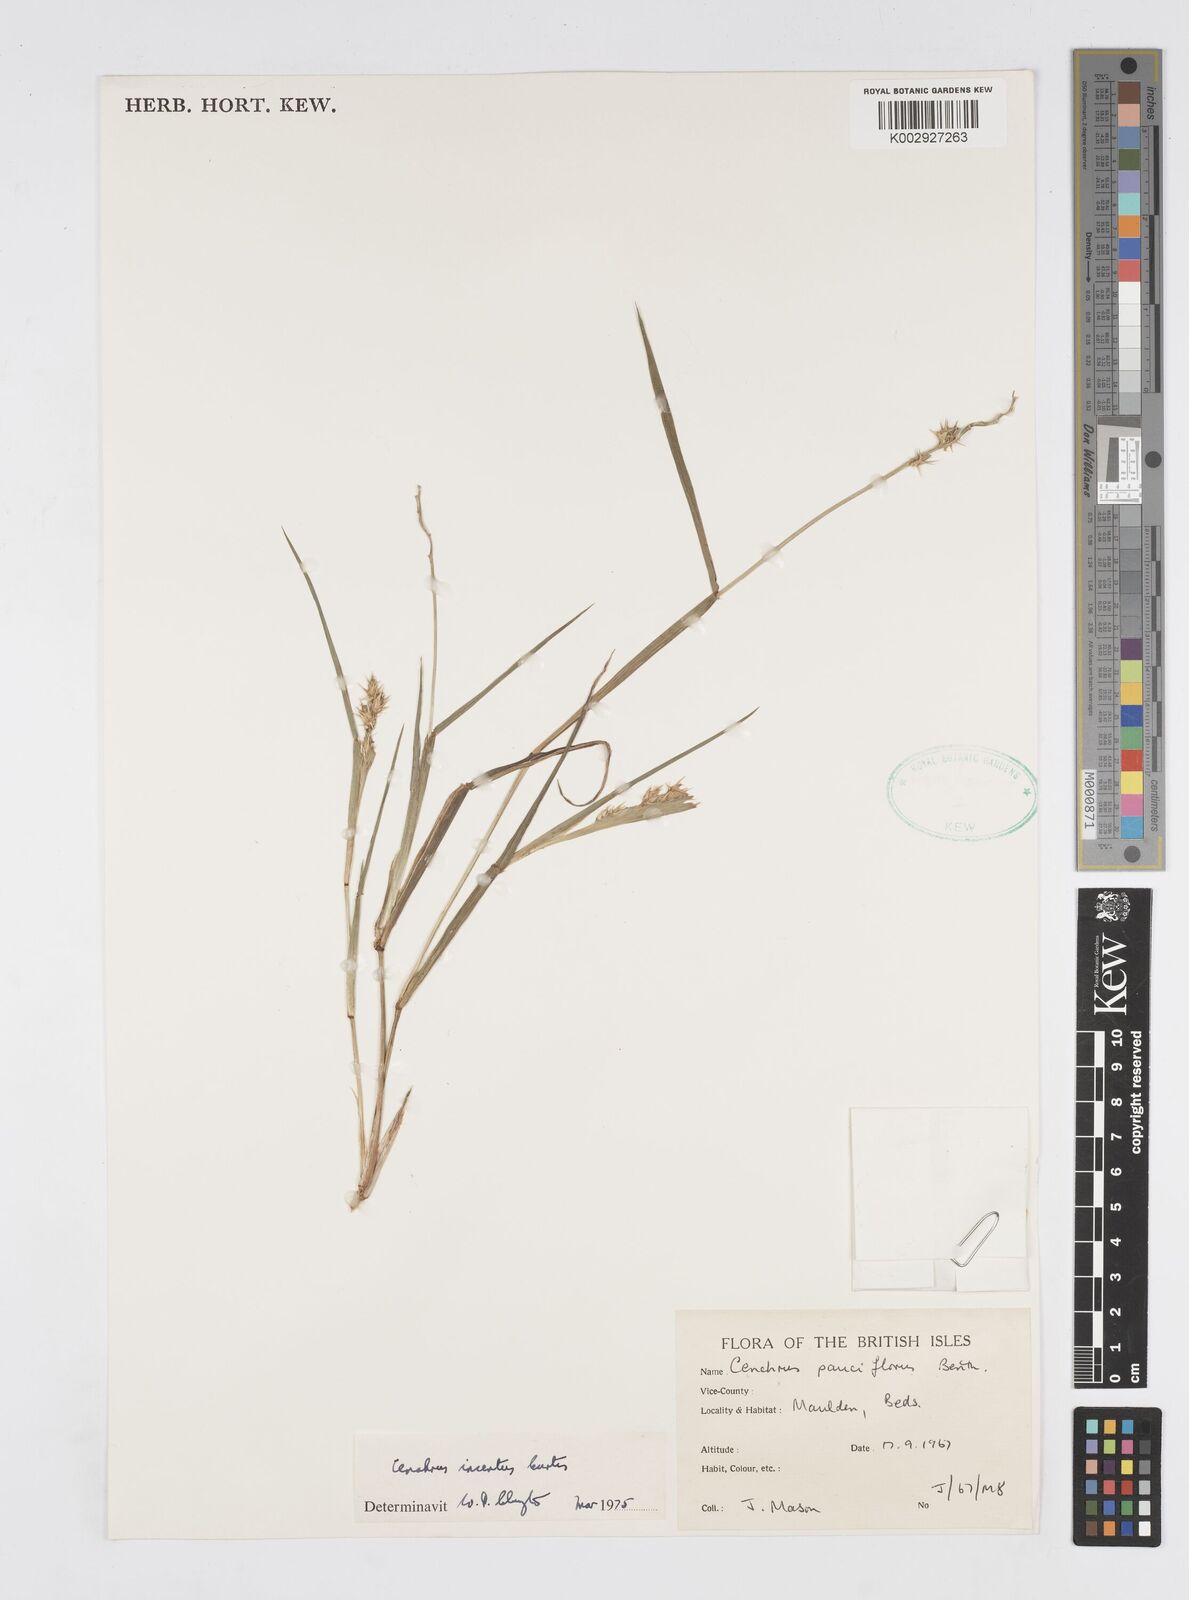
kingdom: Plantae
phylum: Tracheophyta
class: Liliopsida
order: Poales
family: Poaceae
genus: Cenchrus
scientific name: Cenchrus spinifex
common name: Coast sandbur
